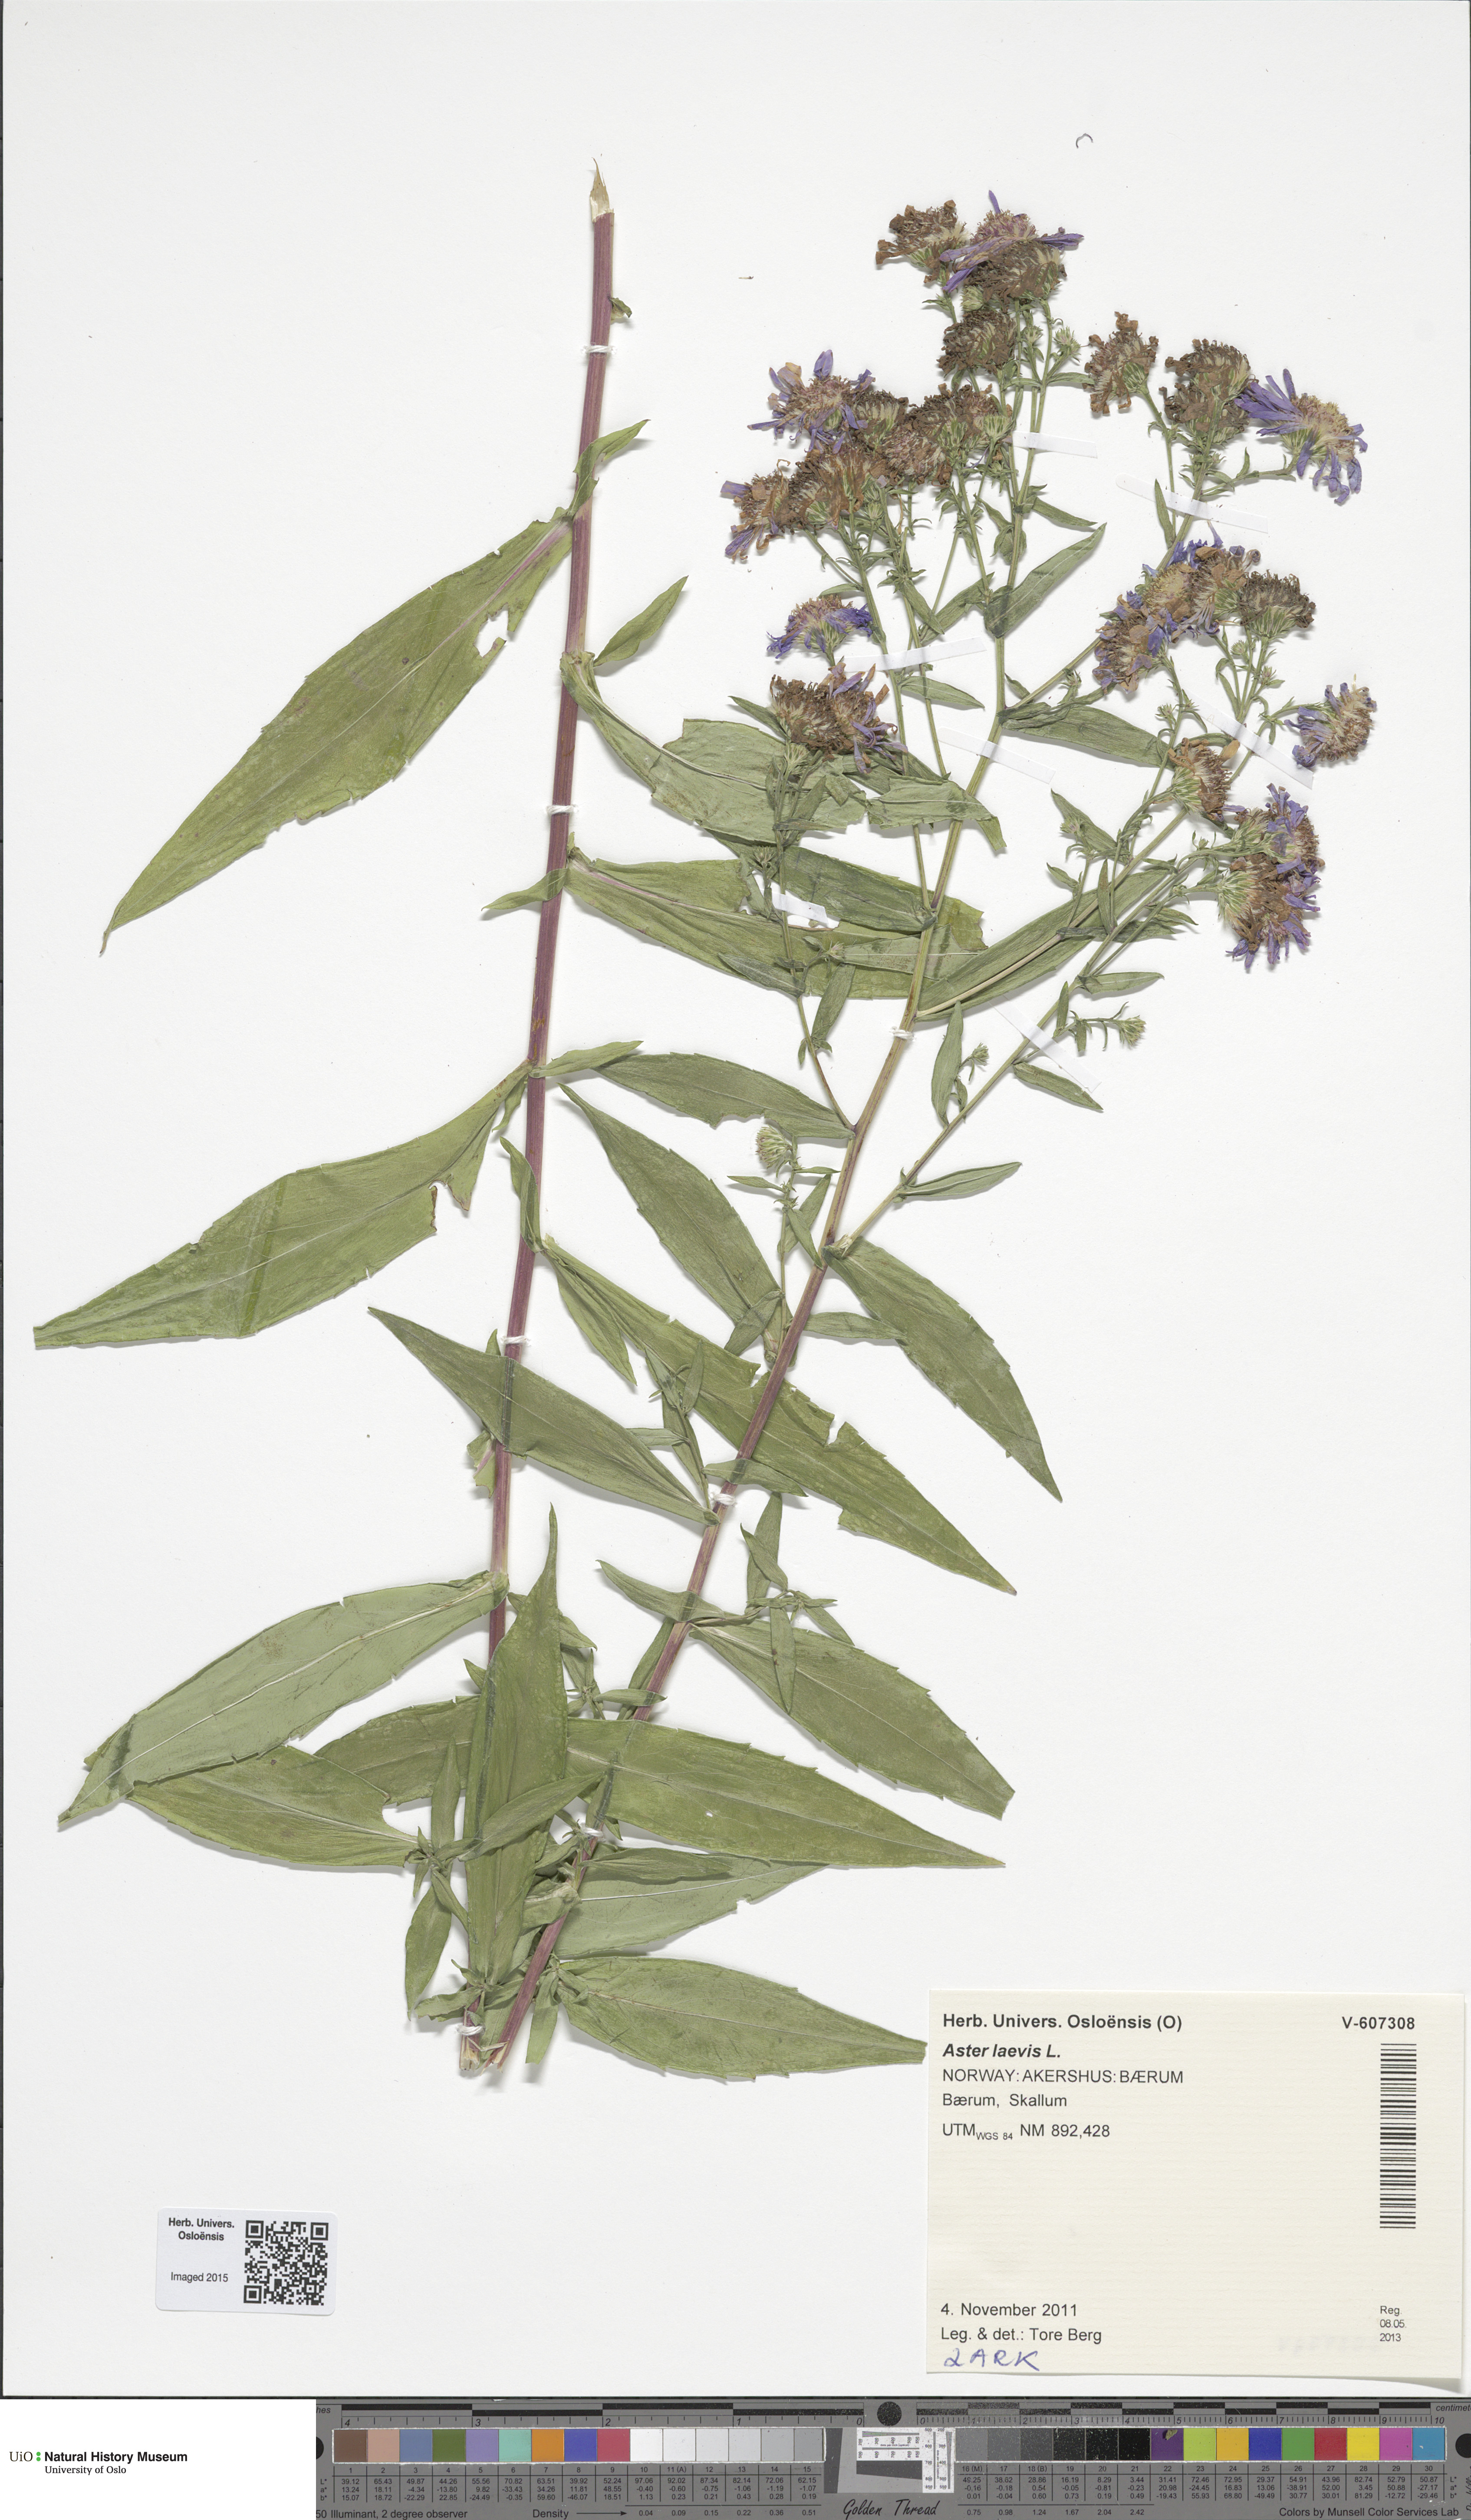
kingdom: Plantae
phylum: Tracheophyta
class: Magnoliopsida
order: Asterales
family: Asteraceae
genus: Symphyotrichum
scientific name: Symphyotrichum versicolor
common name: Late michaelmas daisy
